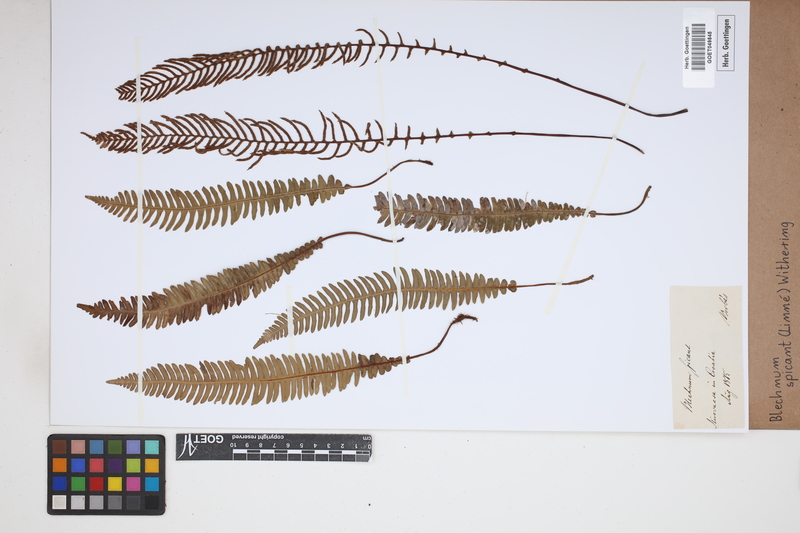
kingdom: Plantae
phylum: Tracheophyta
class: Polypodiopsida
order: Polypodiales
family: Blechnaceae
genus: Struthiopteris
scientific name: Struthiopteris spicant
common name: Deer fern
